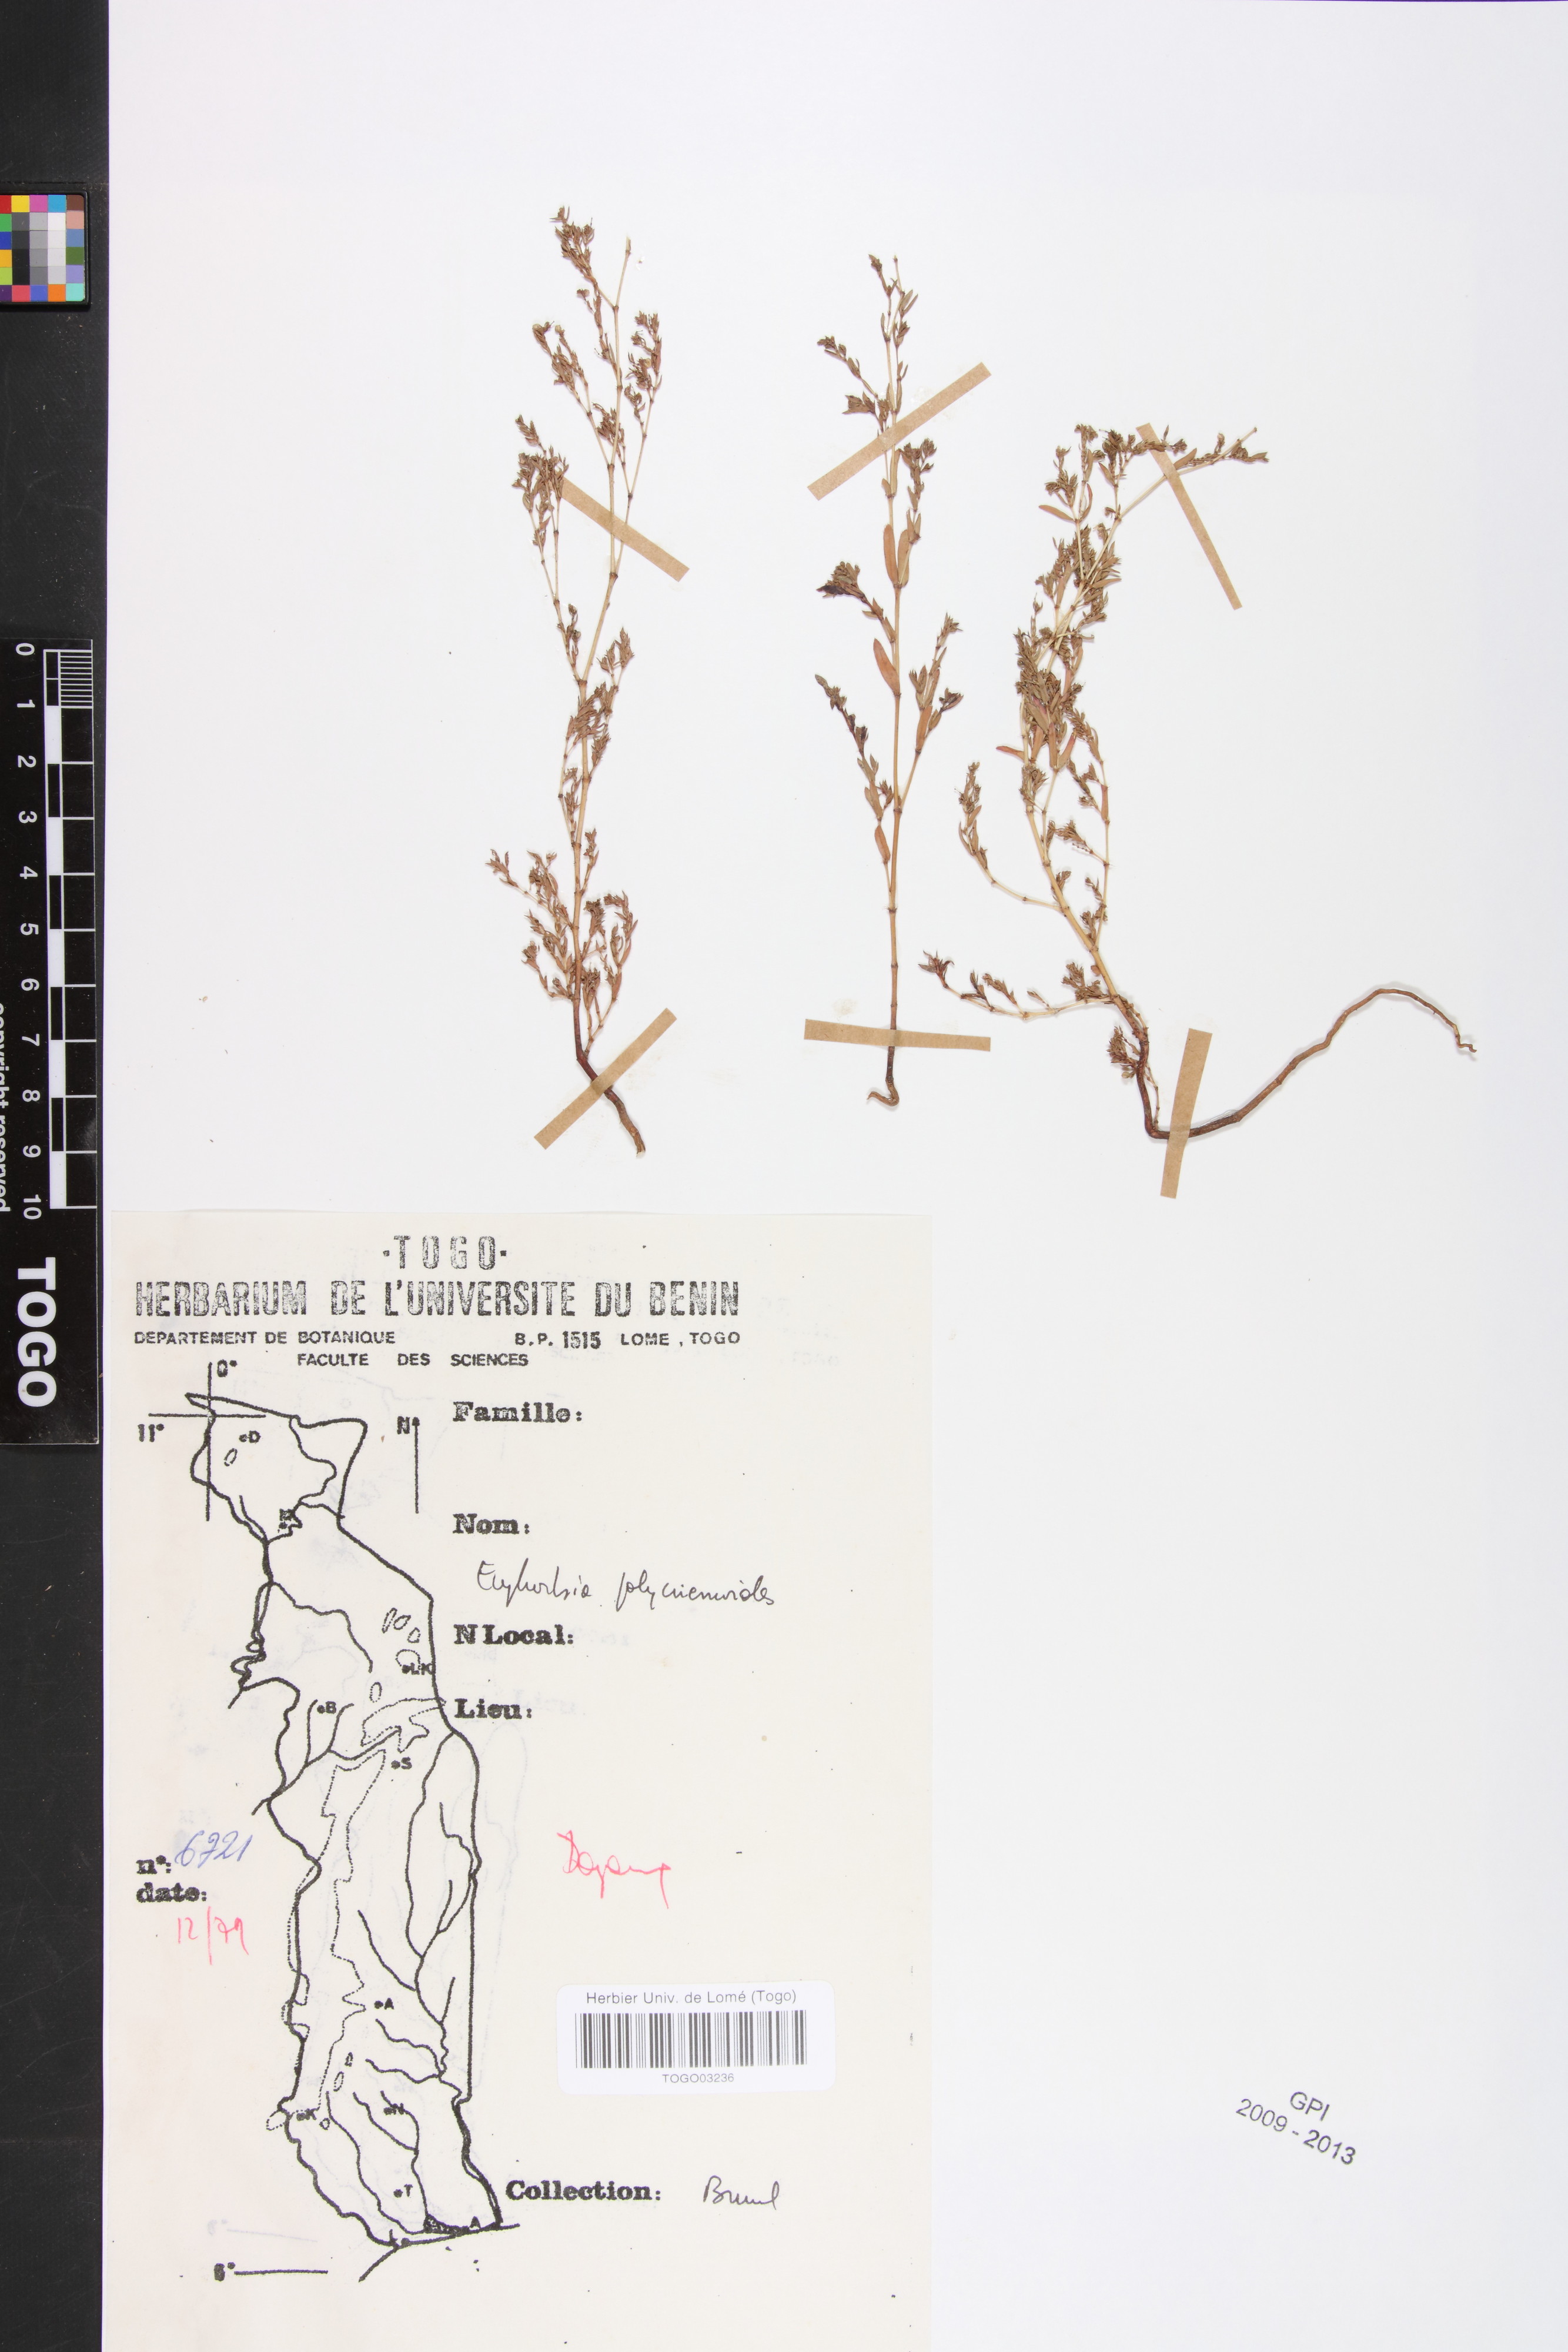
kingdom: Plantae
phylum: Tracheophyta
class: Magnoliopsida
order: Malpighiales
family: Euphorbiaceae
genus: Euphorbia
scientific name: Euphorbia polycnemoides
